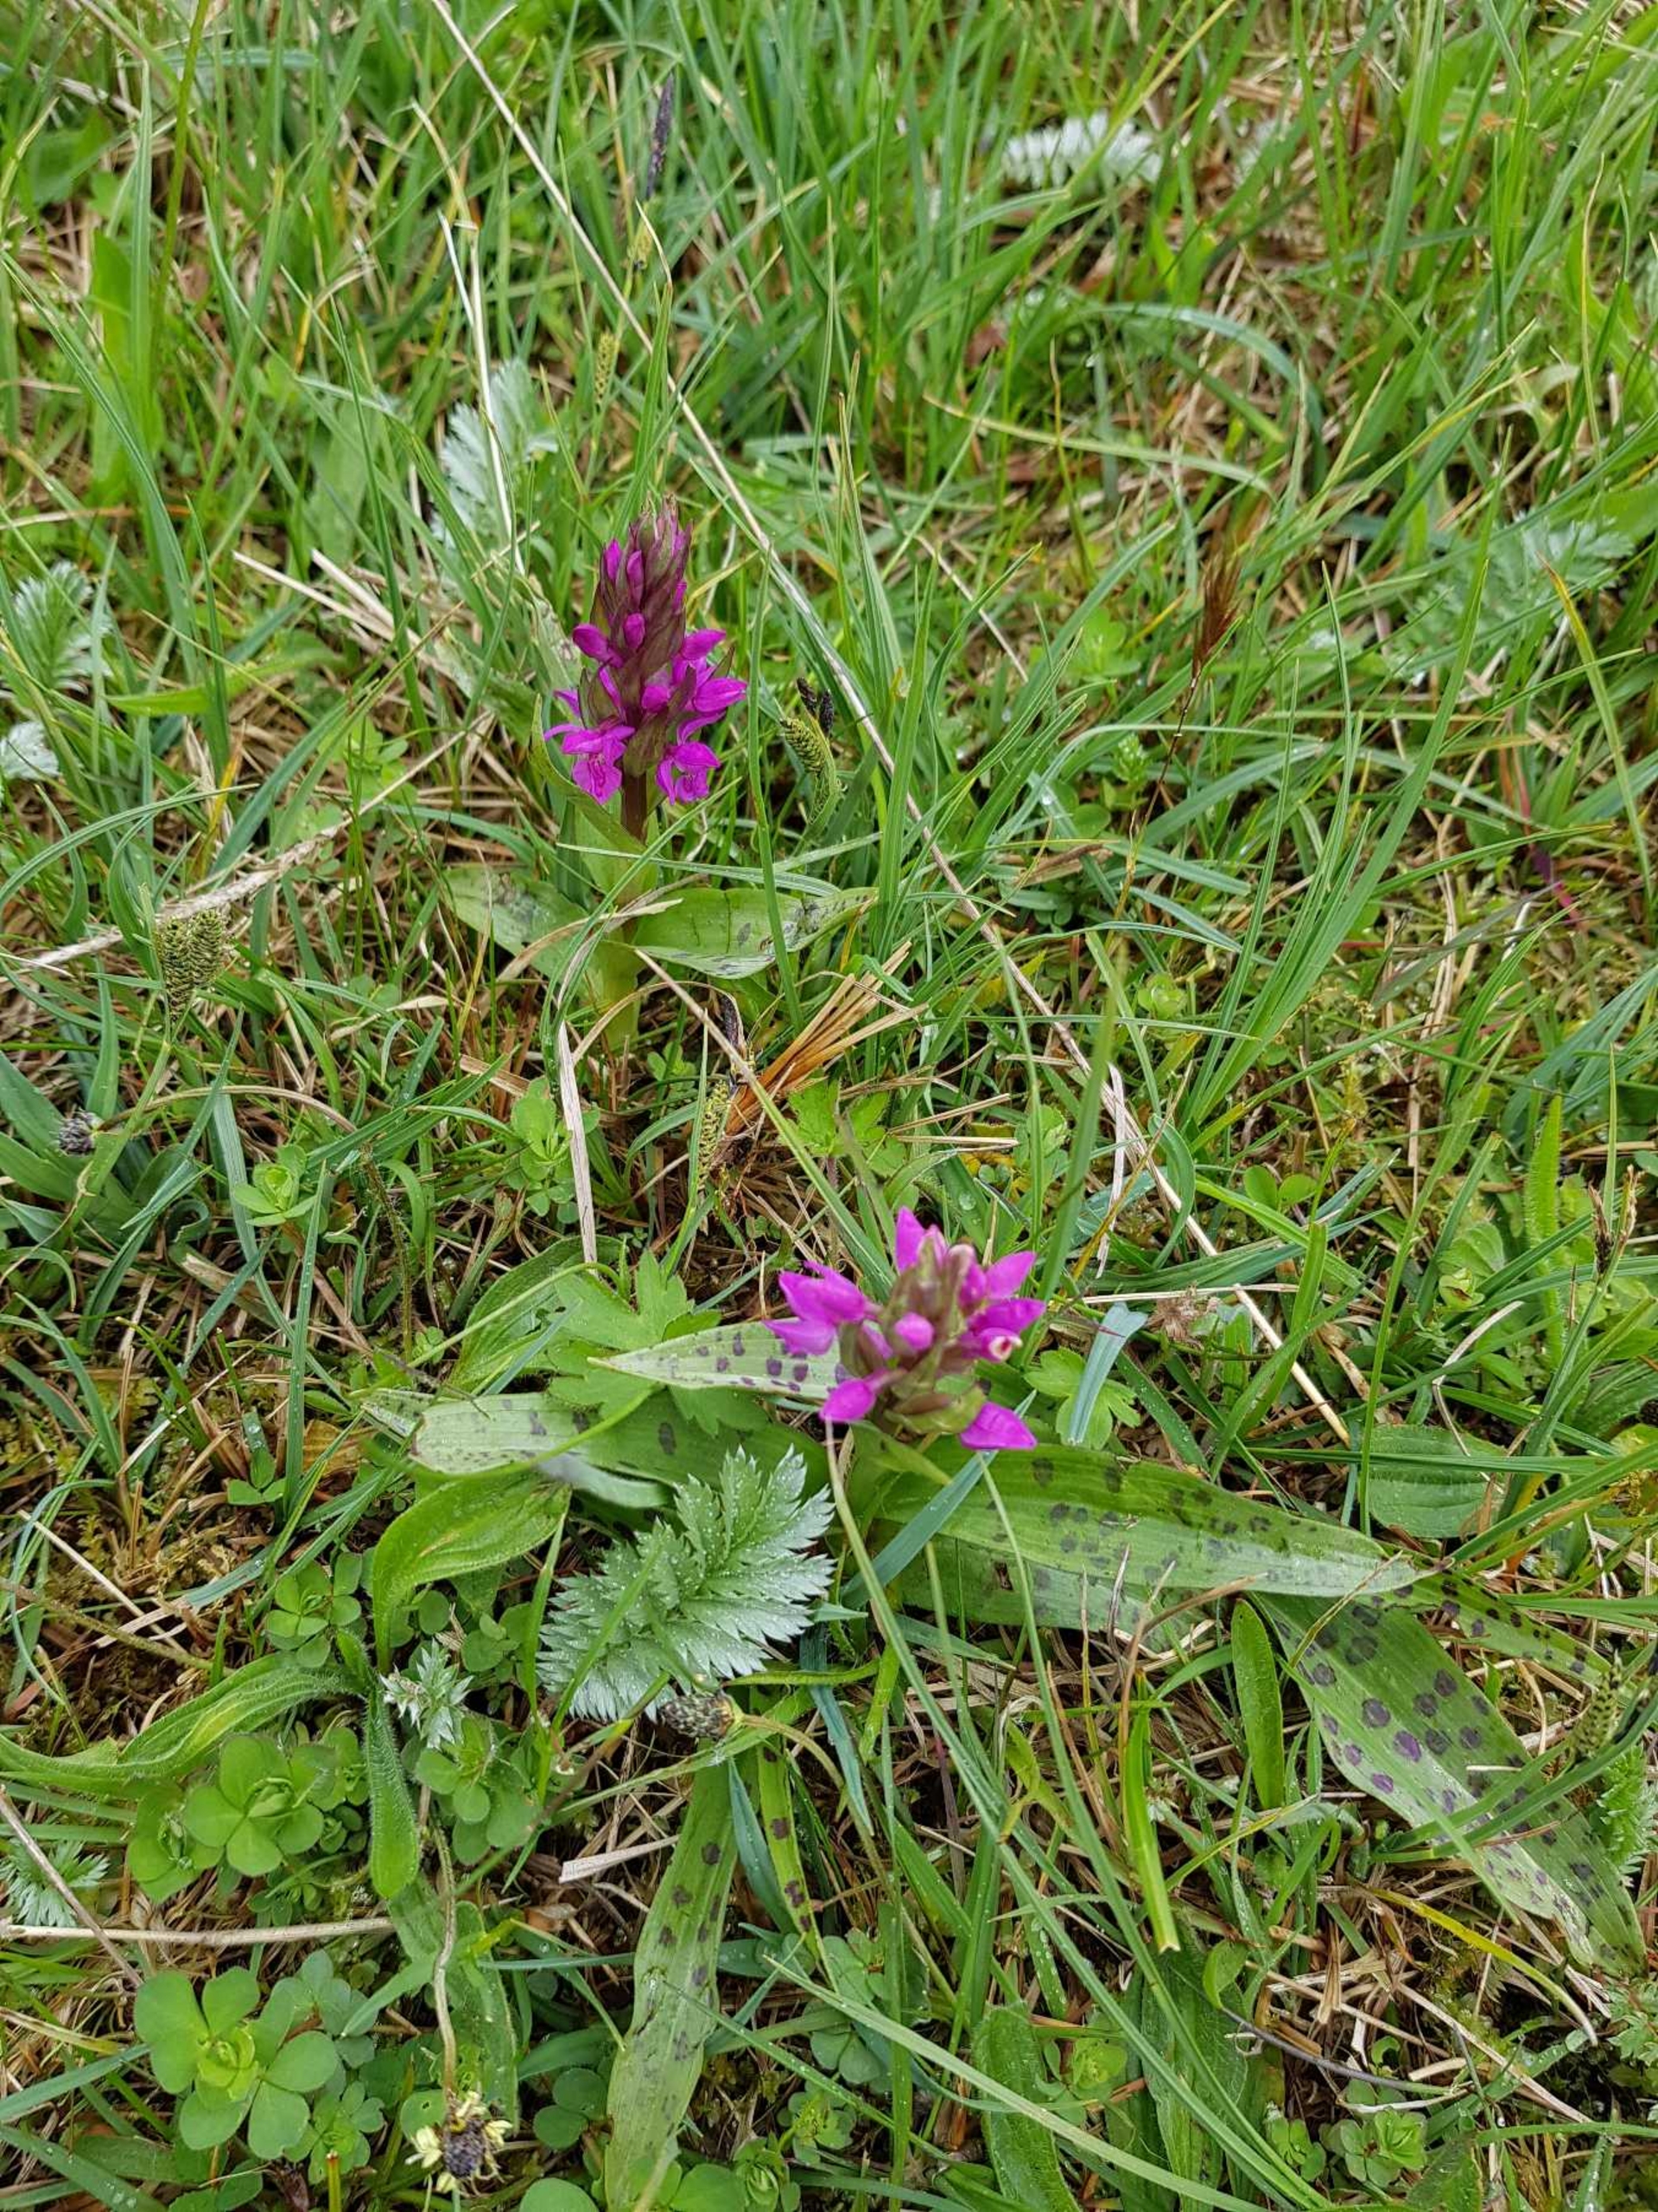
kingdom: Plantae
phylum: Tracheophyta
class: Liliopsida
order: Asparagales
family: Orchidaceae
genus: Dactylorhiza
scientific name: Dactylorhiza majalis
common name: Maj-gøgeurt
